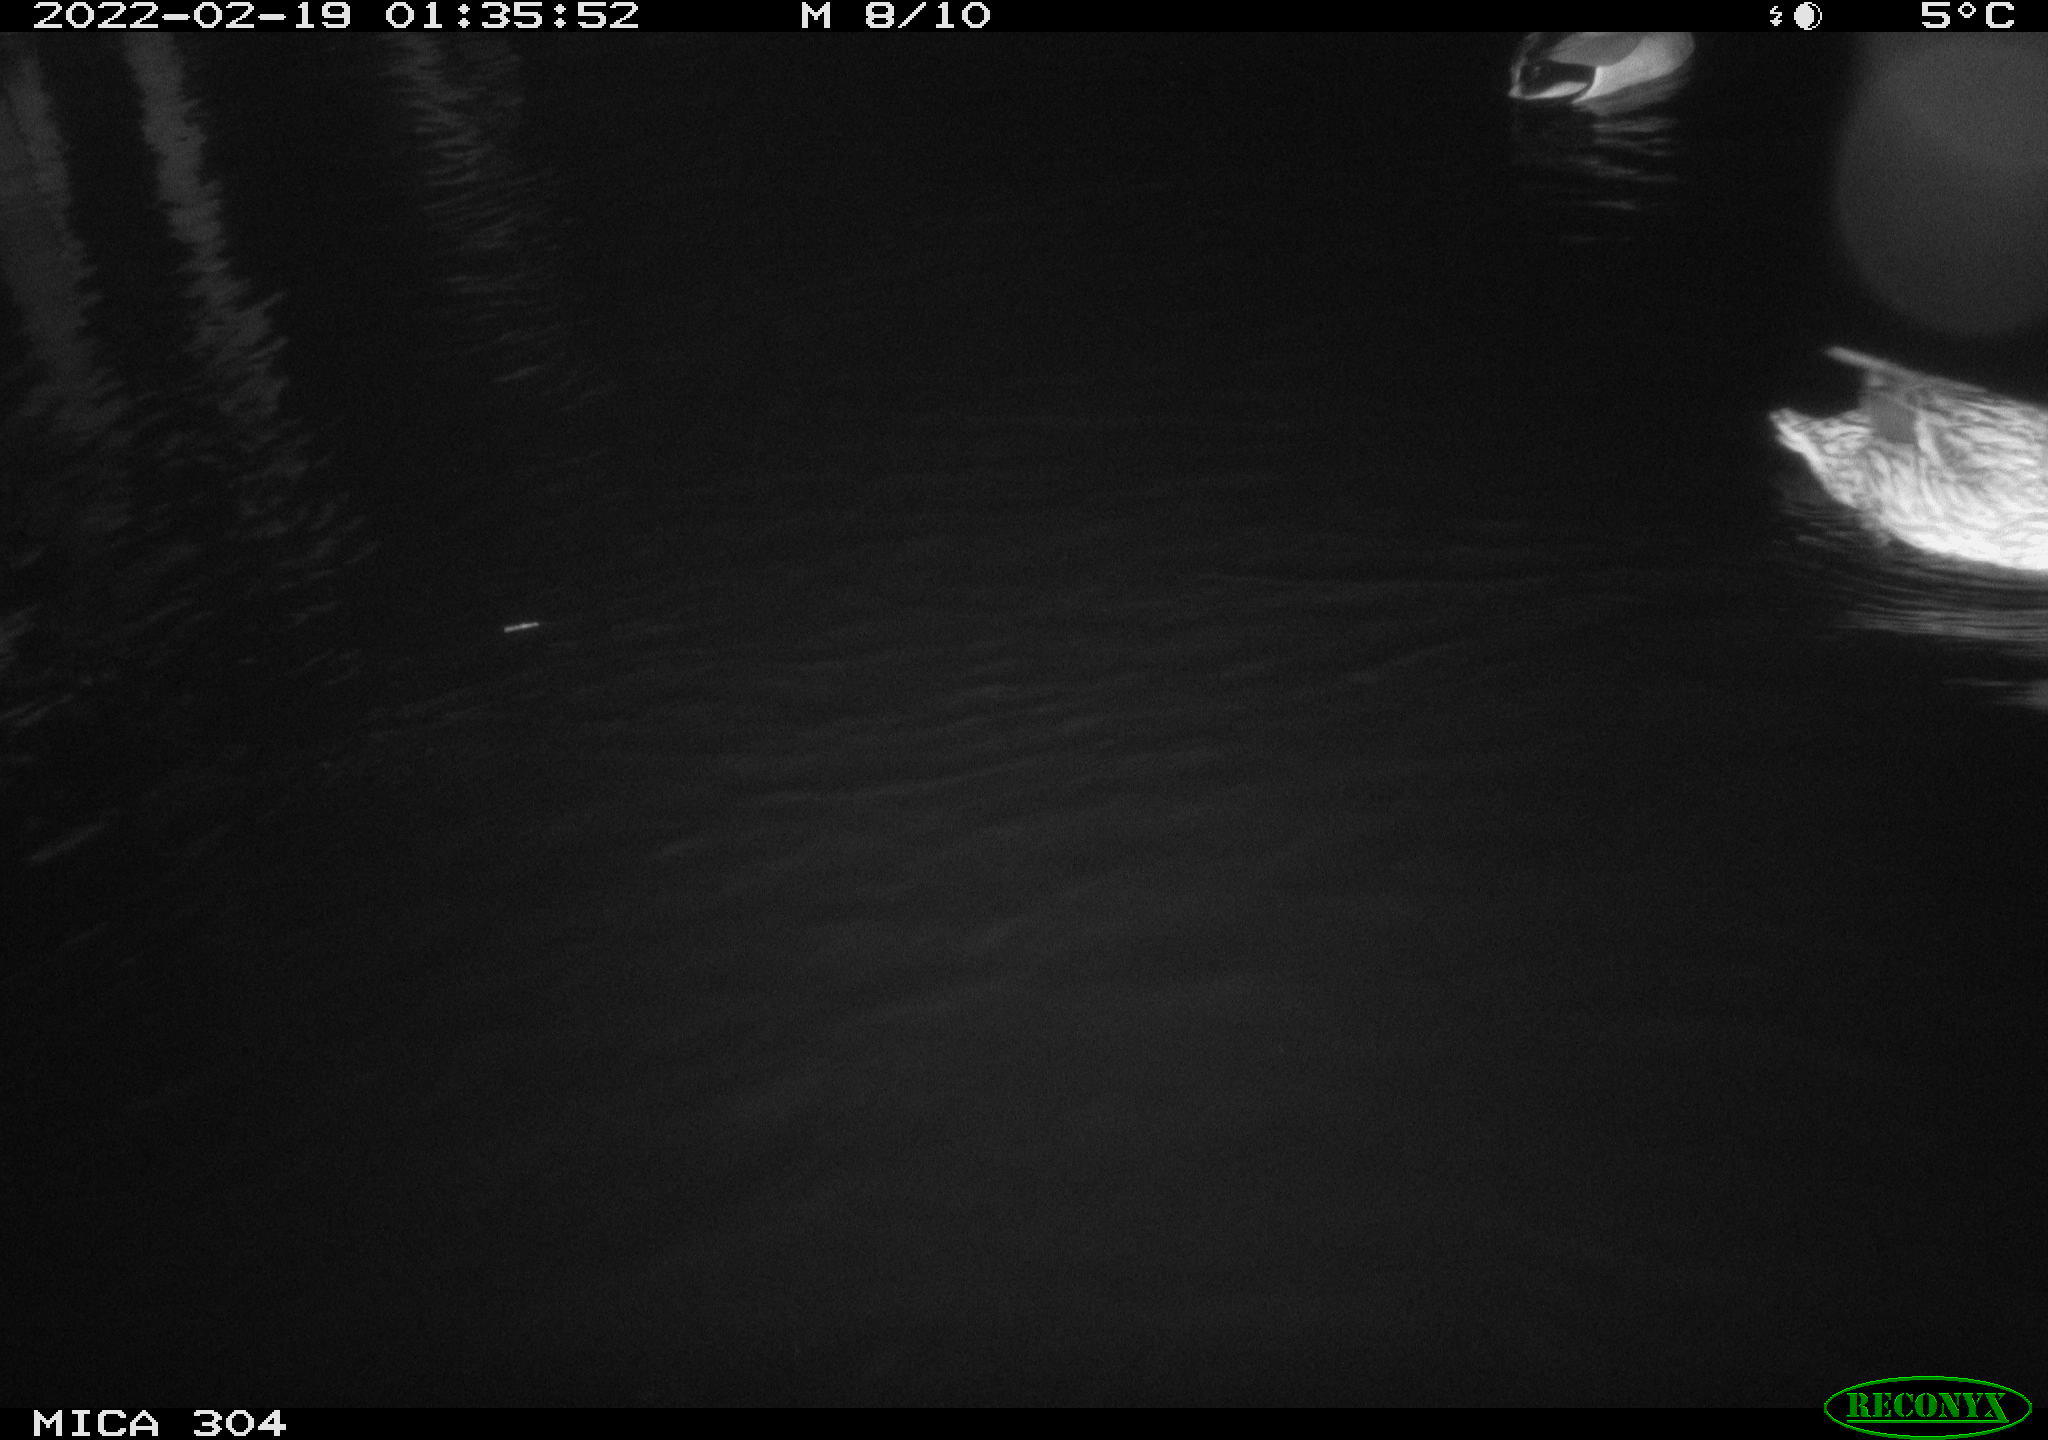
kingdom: Animalia
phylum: Chordata
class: Aves
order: Anseriformes
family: Anatidae
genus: Mareca
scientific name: Mareca strepera
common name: Gadwall
